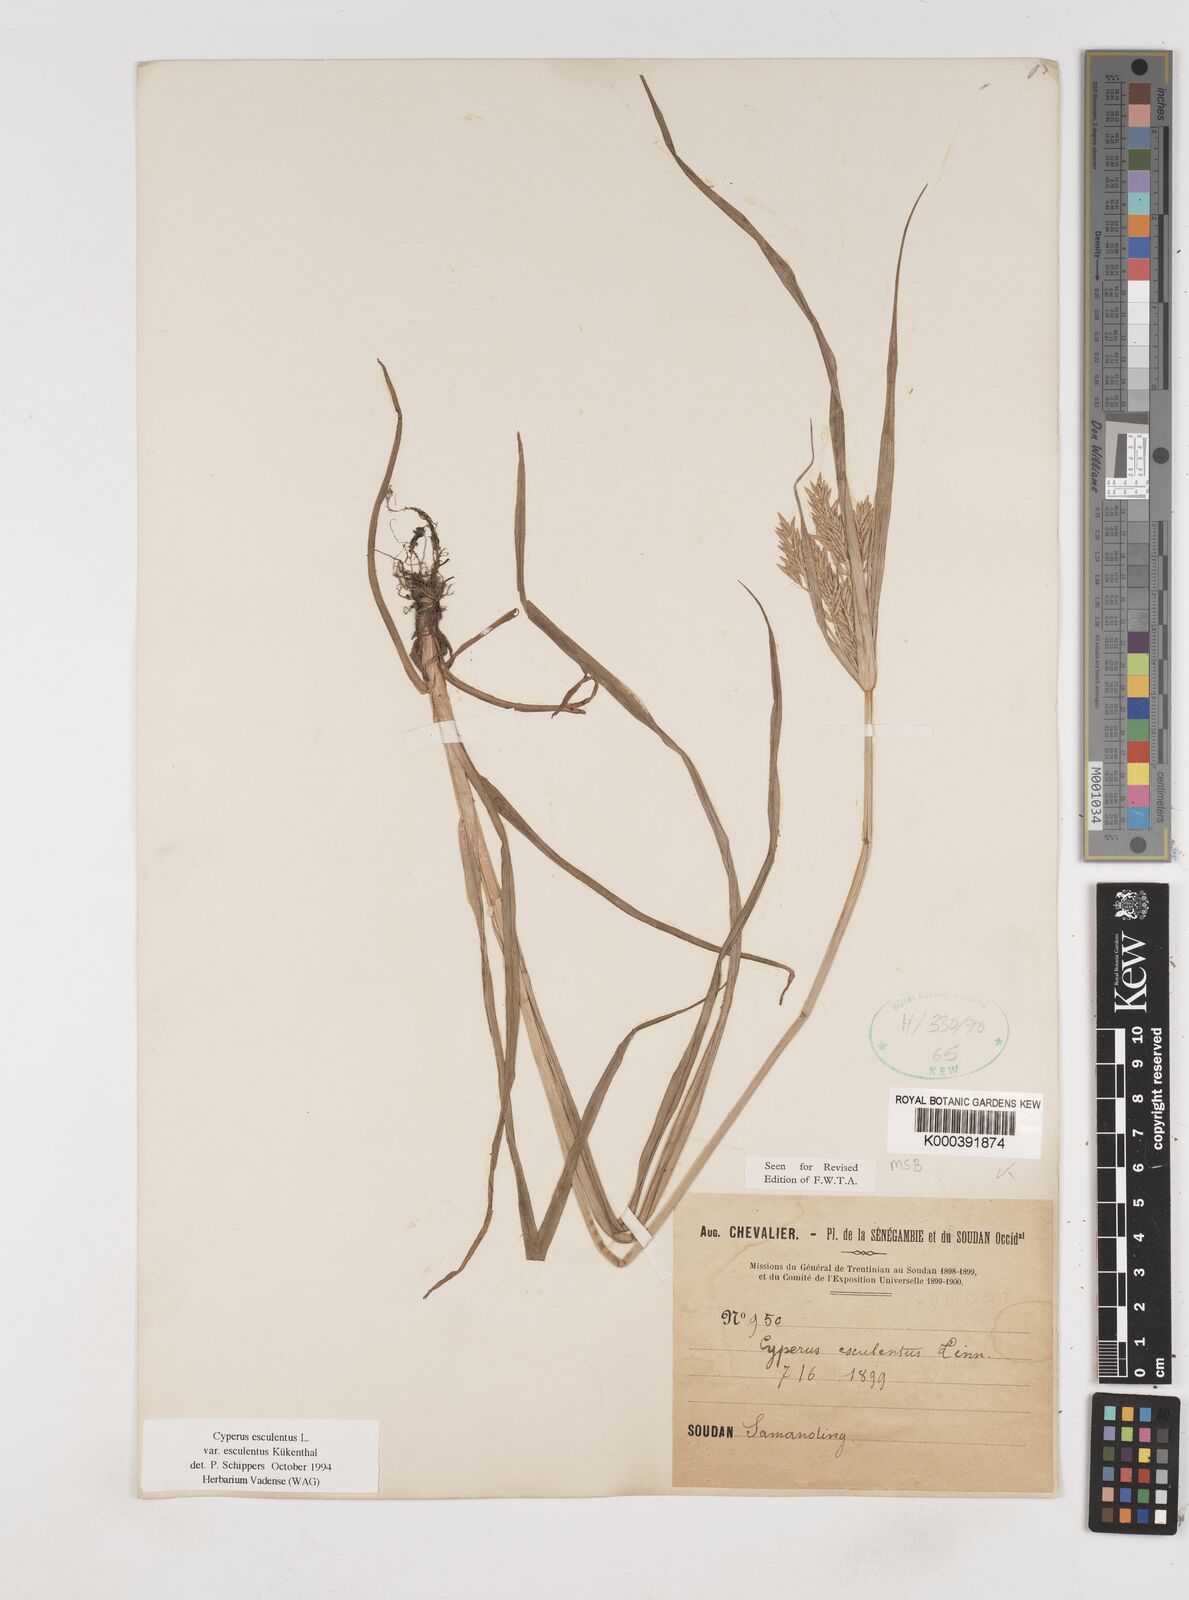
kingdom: Plantae
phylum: Tracheophyta
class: Liliopsida
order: Poales
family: Cyperaceae
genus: Cyperus
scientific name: Cyperus esculentus
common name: Yellow nutsedge
